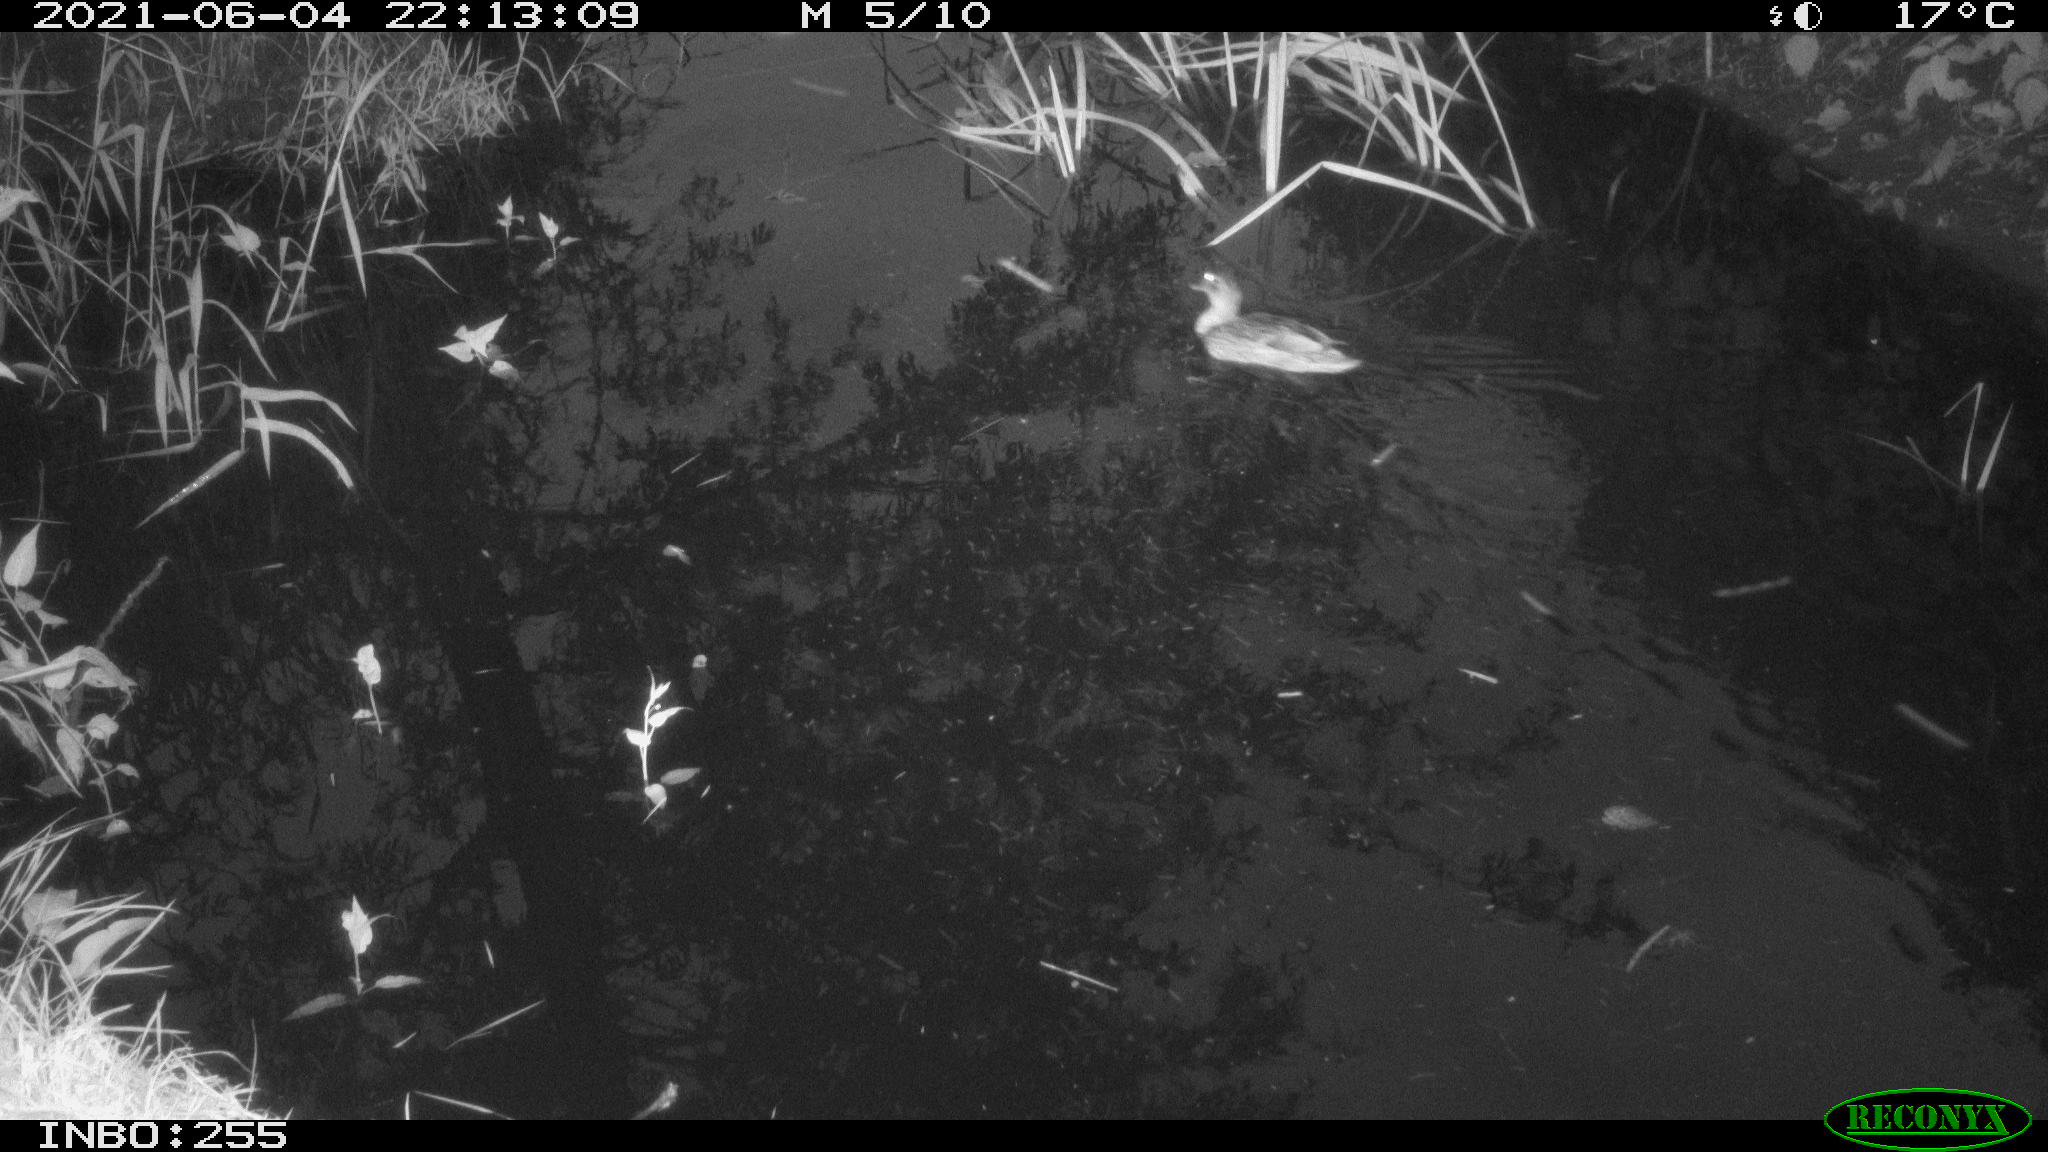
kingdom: Animalia
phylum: Chordata
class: Aves
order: Anseriformes
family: Anatidae
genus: Anas
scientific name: Anas
